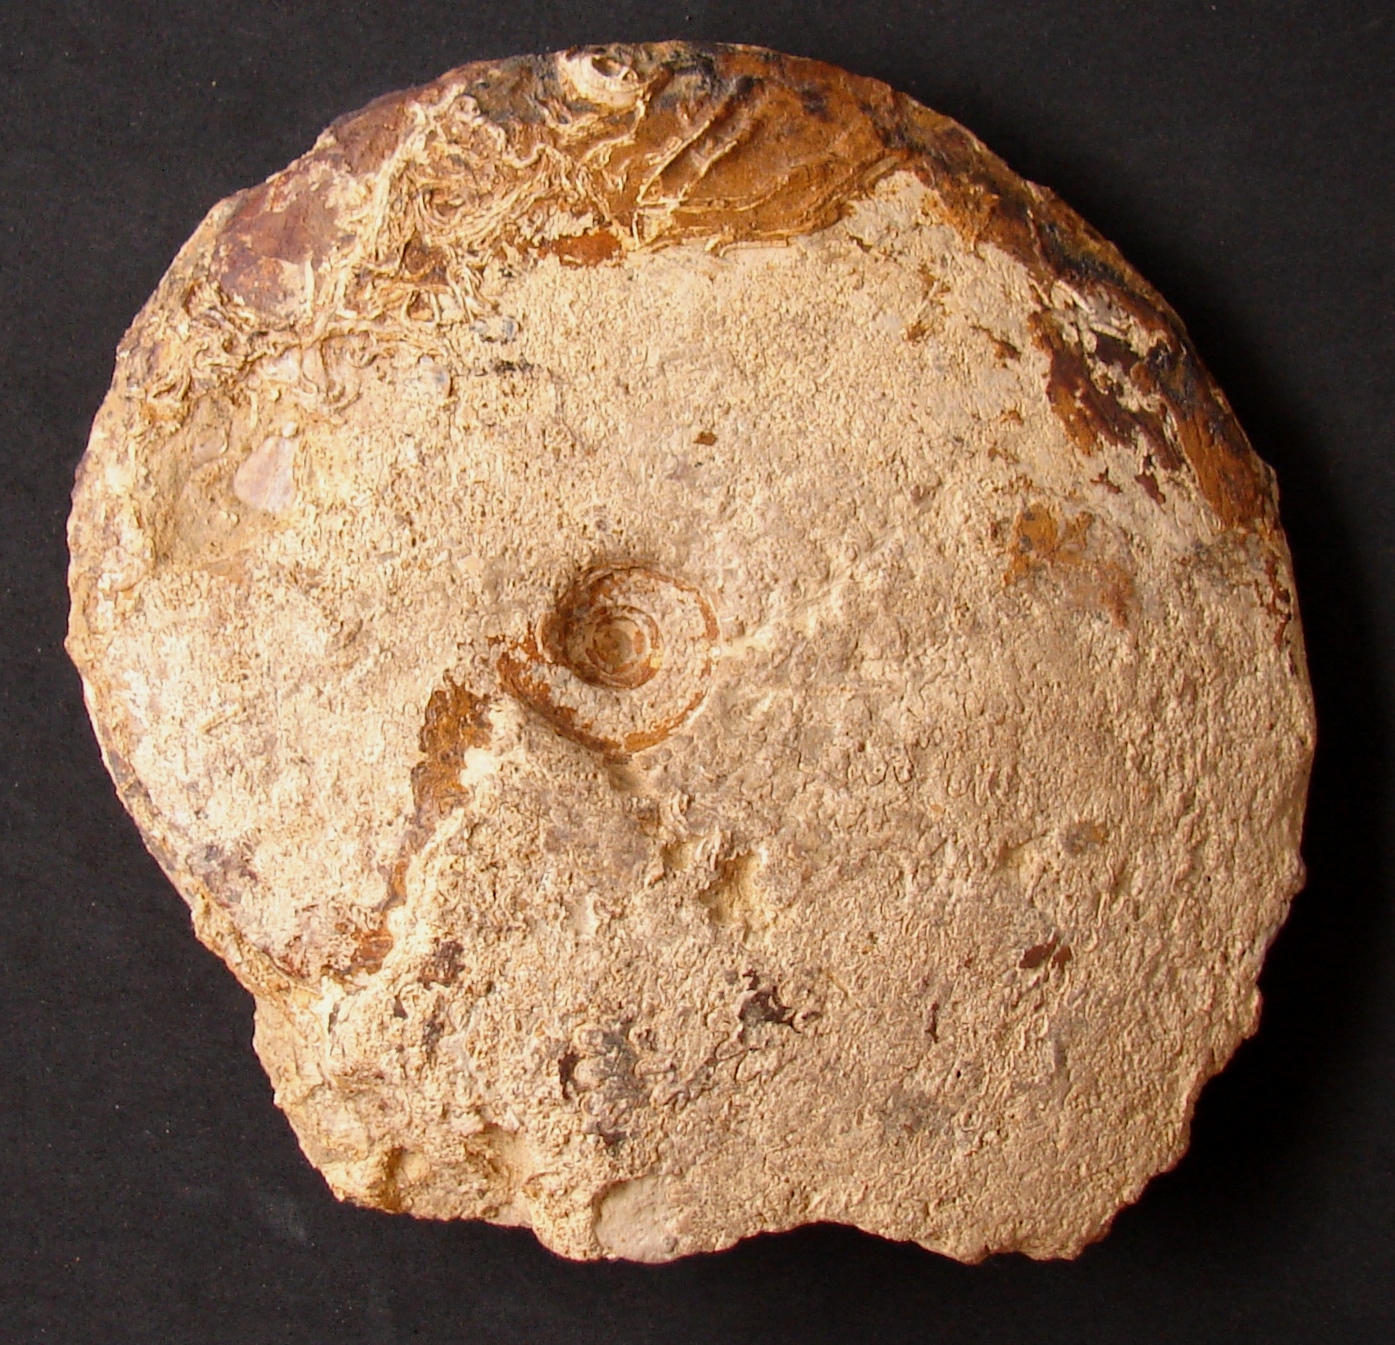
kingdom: Animalia
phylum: Mollusca
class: Cephalopoda
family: Graphoceratidae
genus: Hyperlioceras
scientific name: Hyperlioceras
